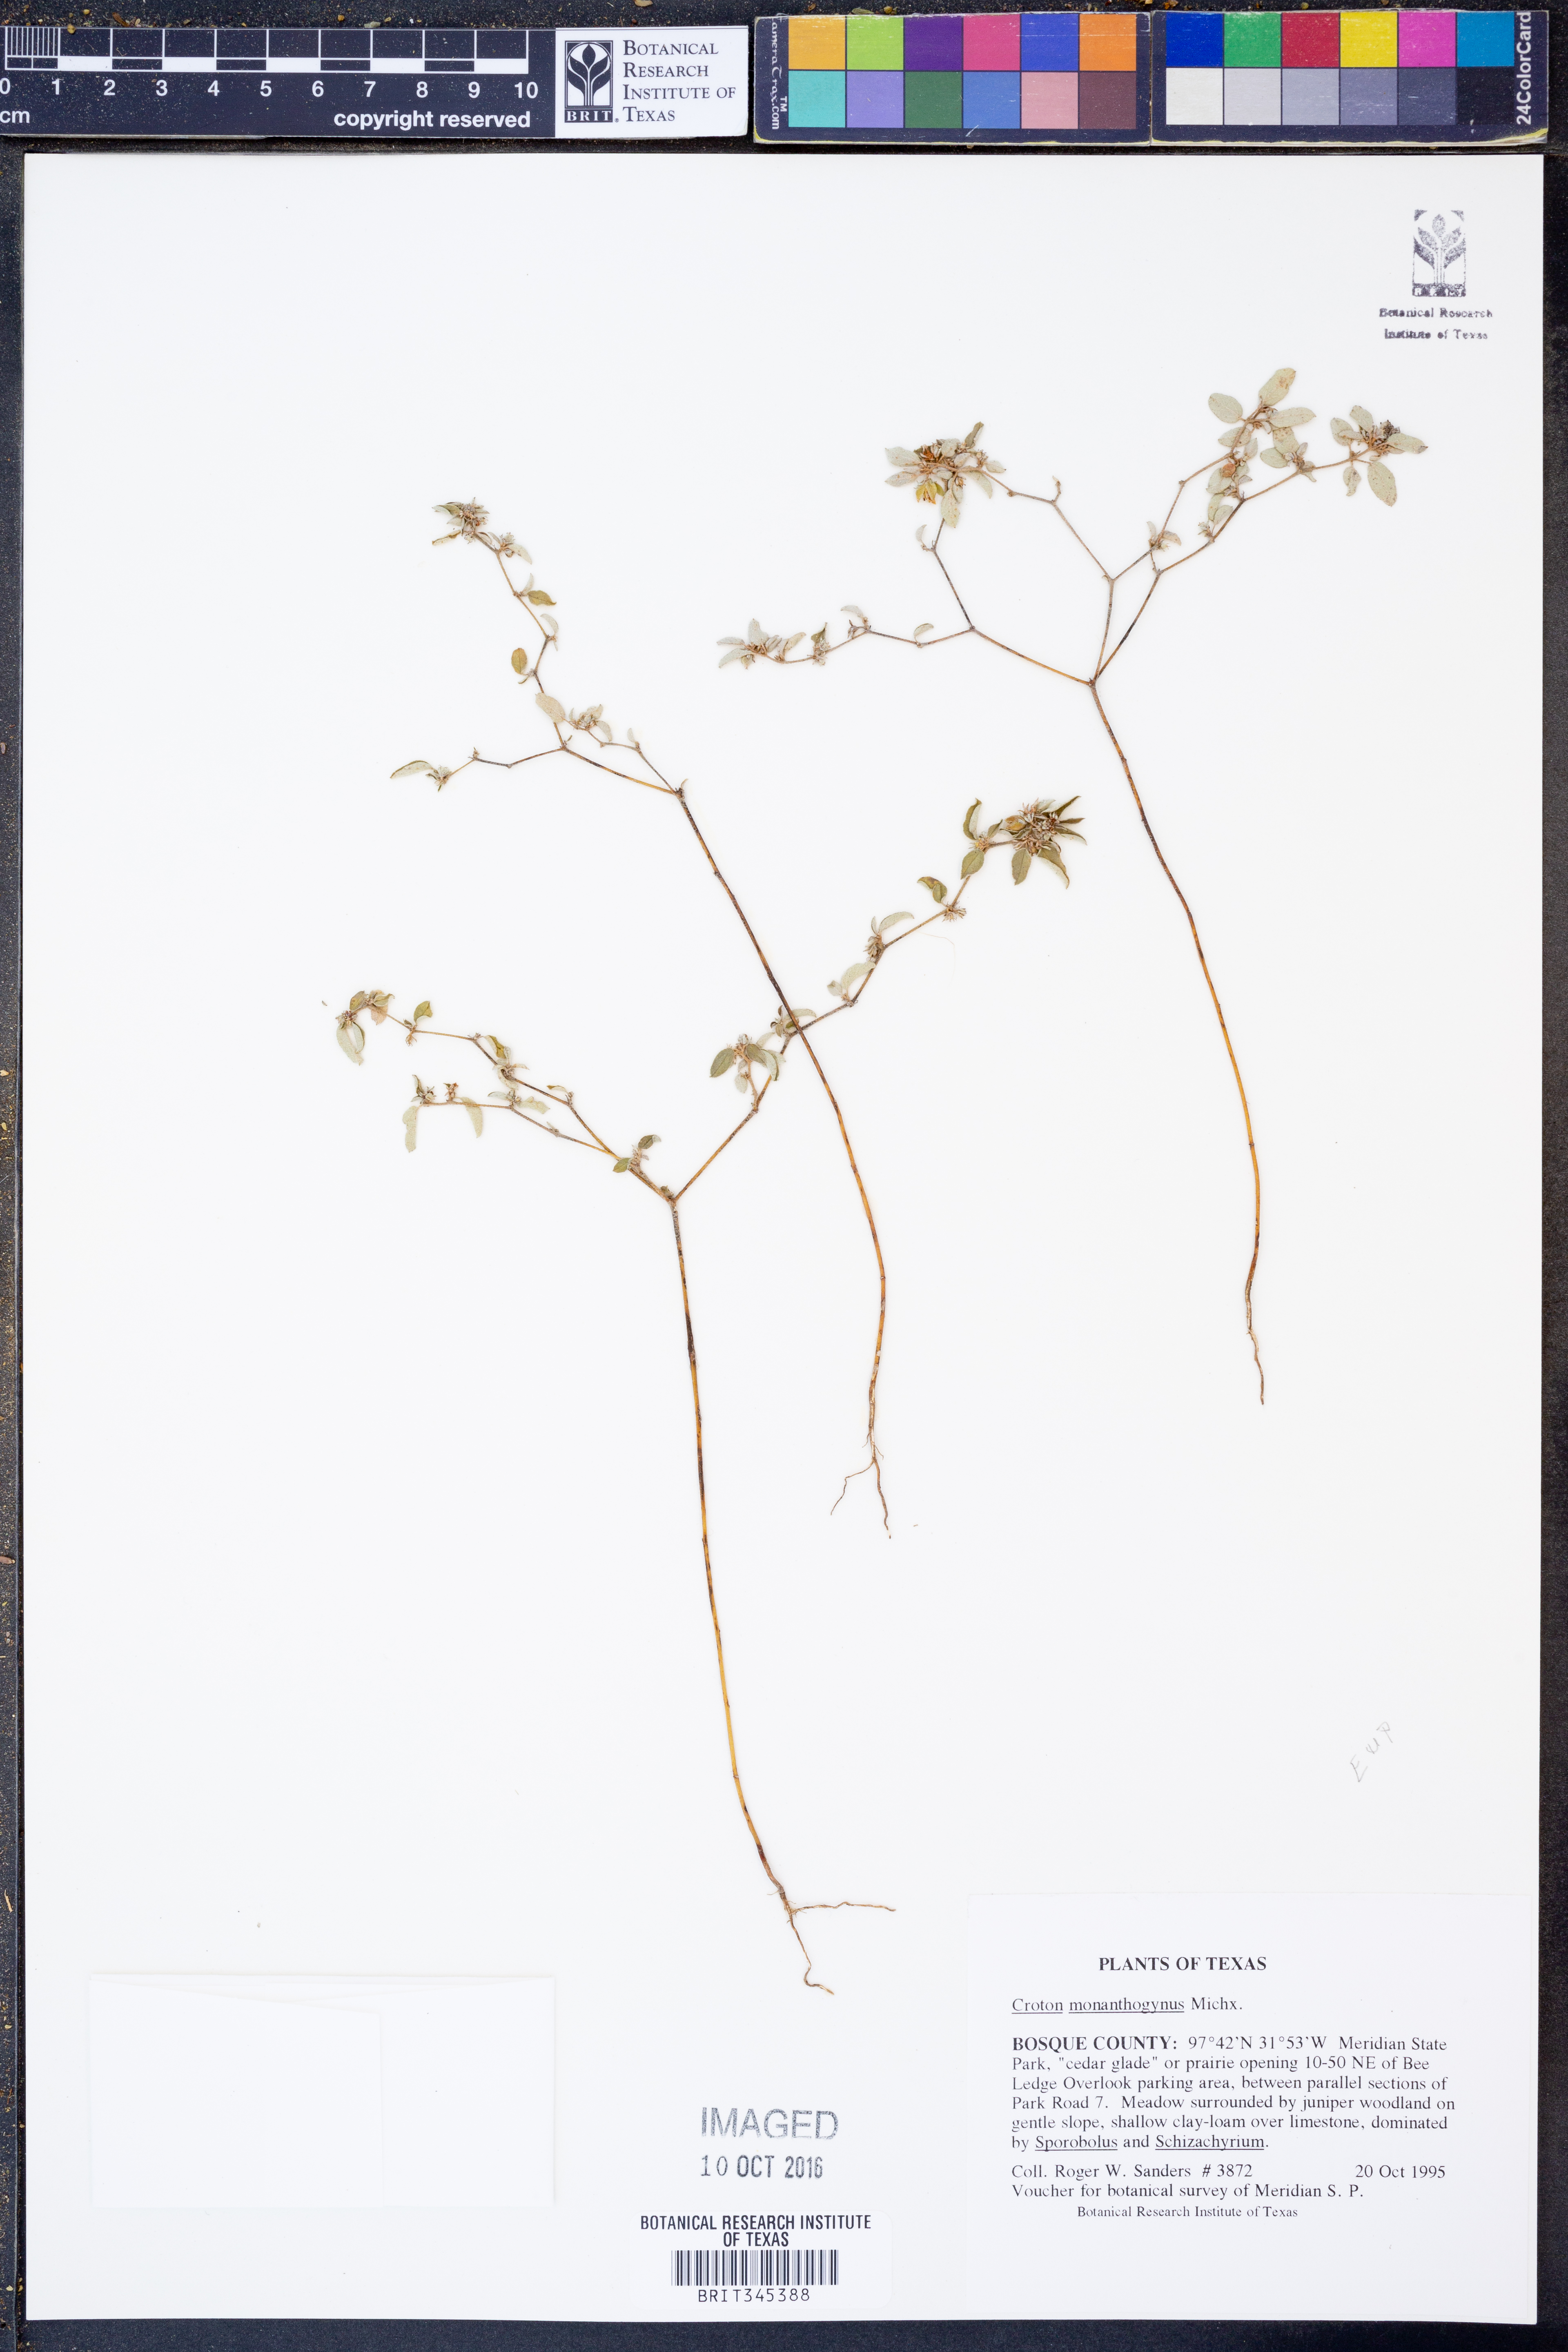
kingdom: Plantae
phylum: Tracheophyta
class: Magnoliopsida
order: Malpighiales
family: Euphorbiaceae
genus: Croton
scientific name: Croton monanthogynus
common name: One-seed croton
